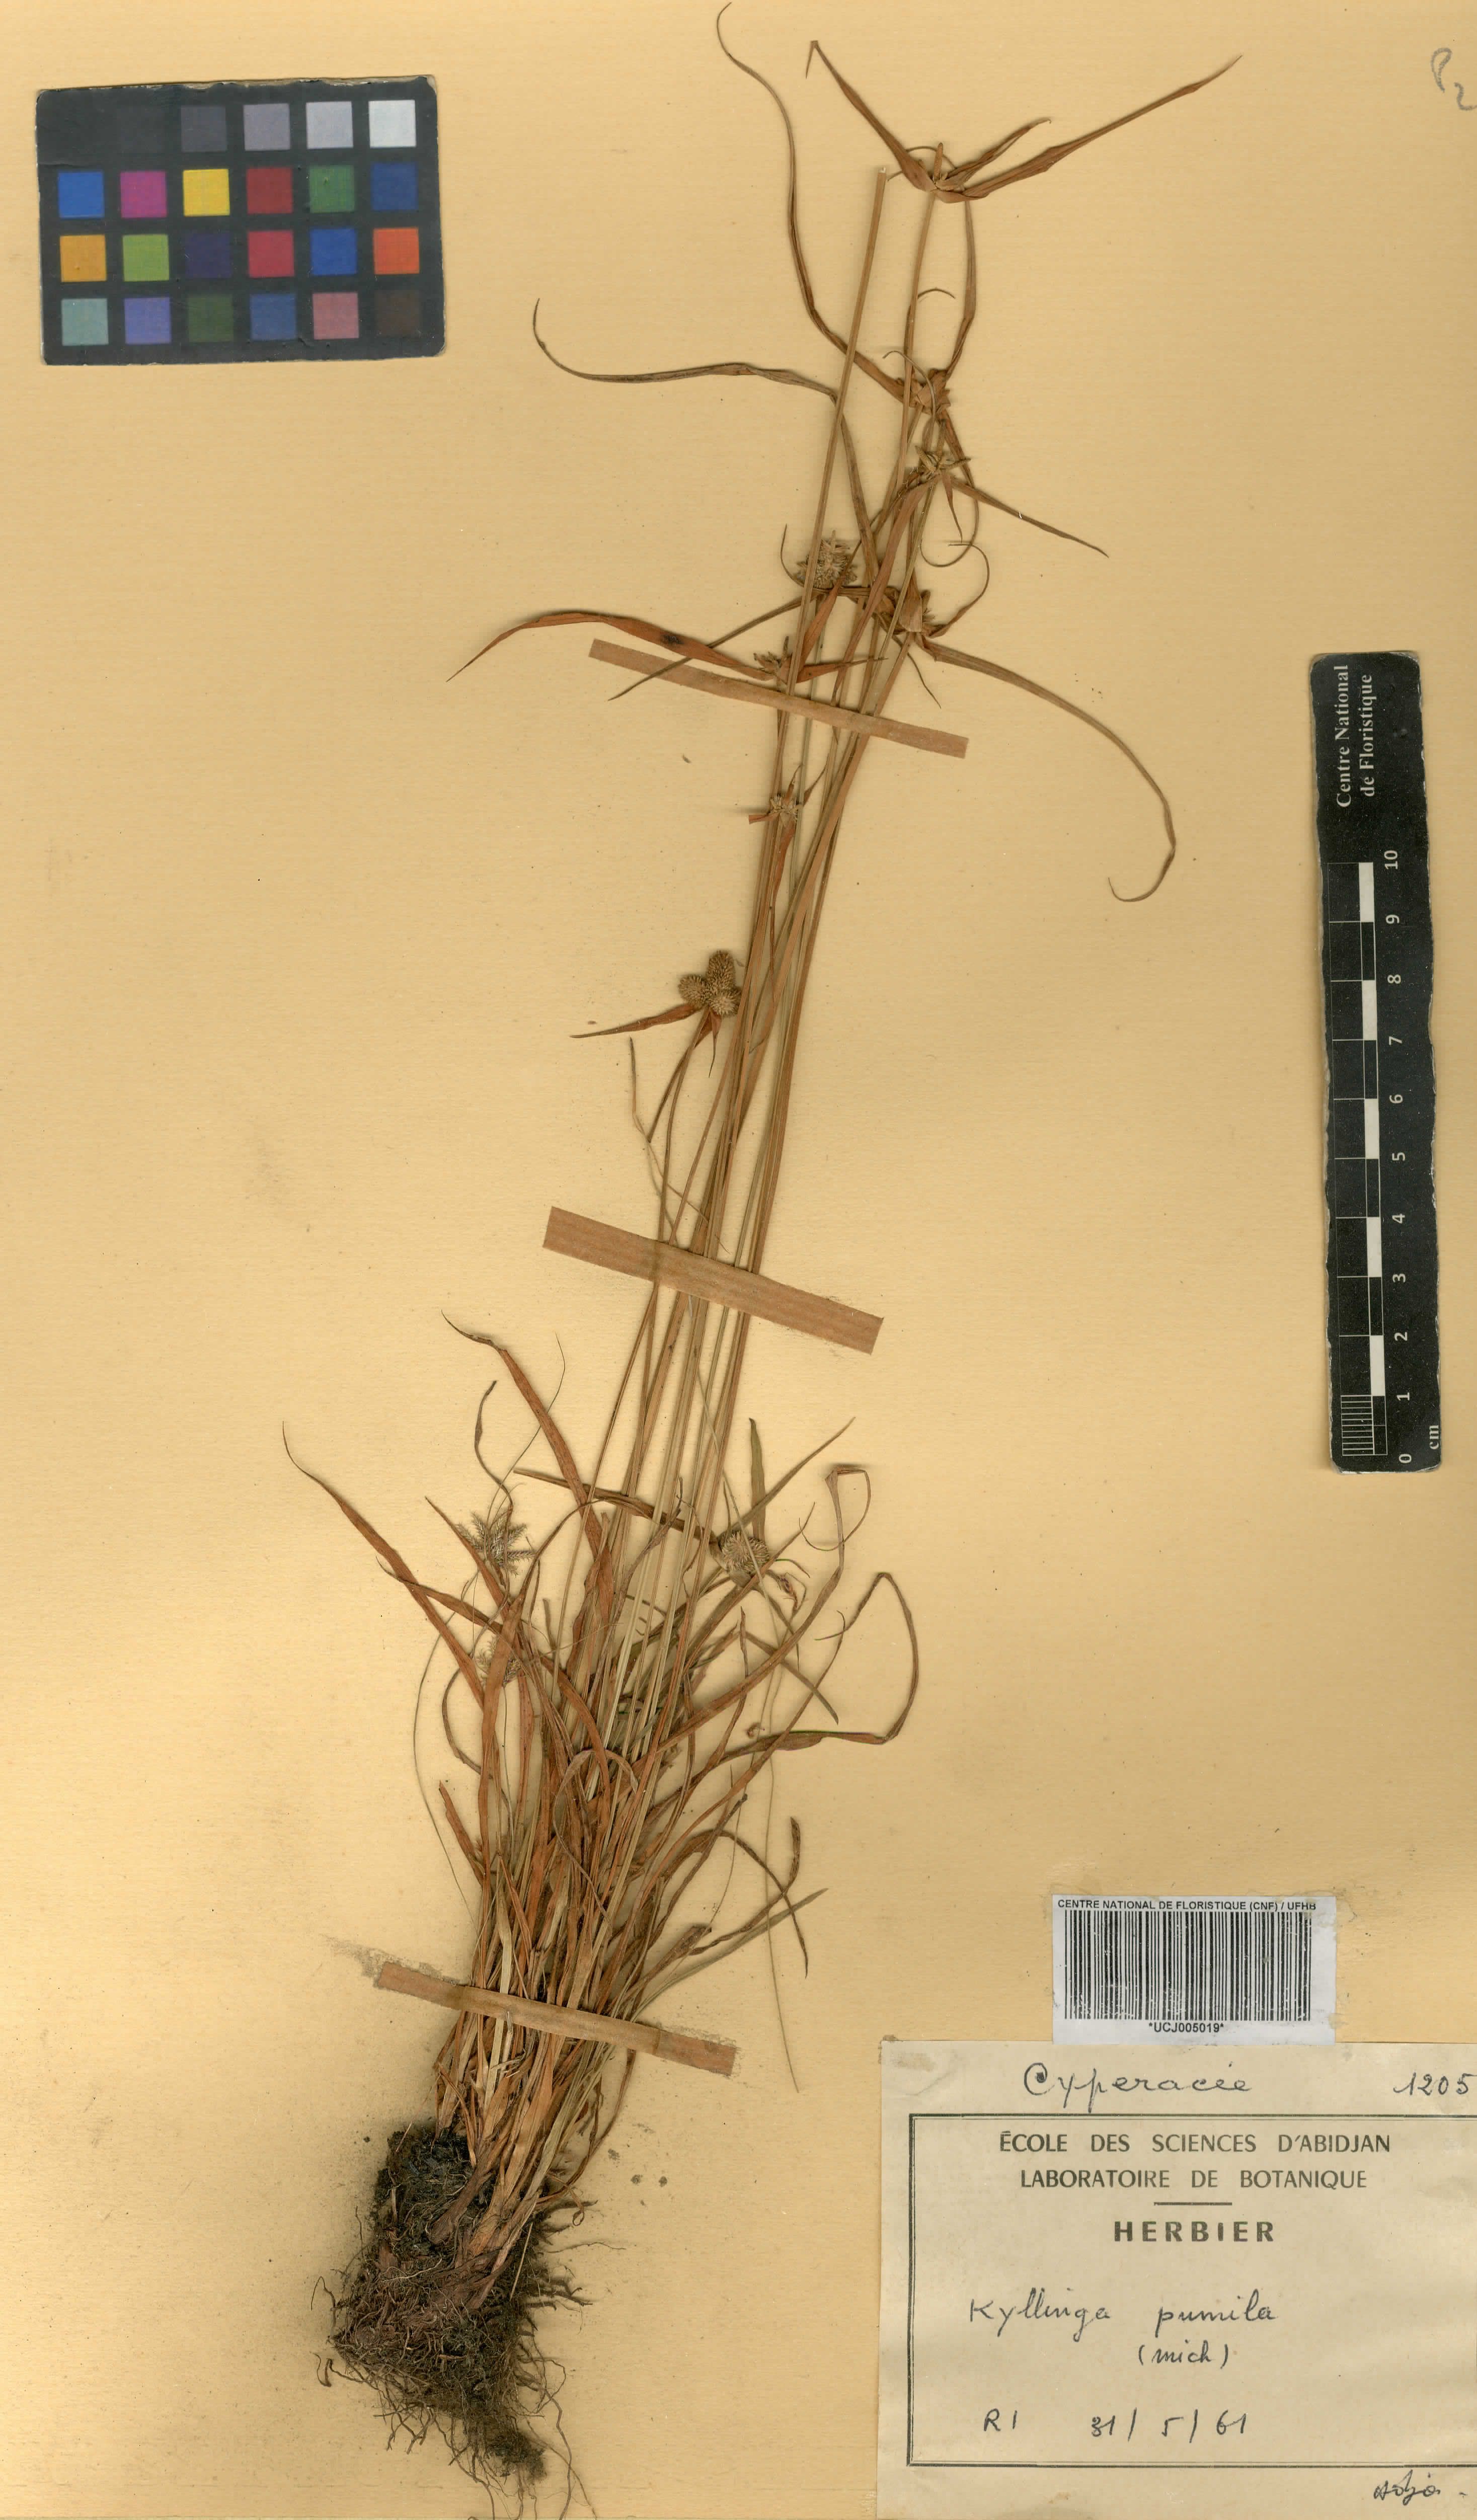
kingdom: Plantae
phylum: Tracheophyta
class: Liliopsida
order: Poales
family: Cyperaceae
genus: Cyperus
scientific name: Cyperus hortensis
